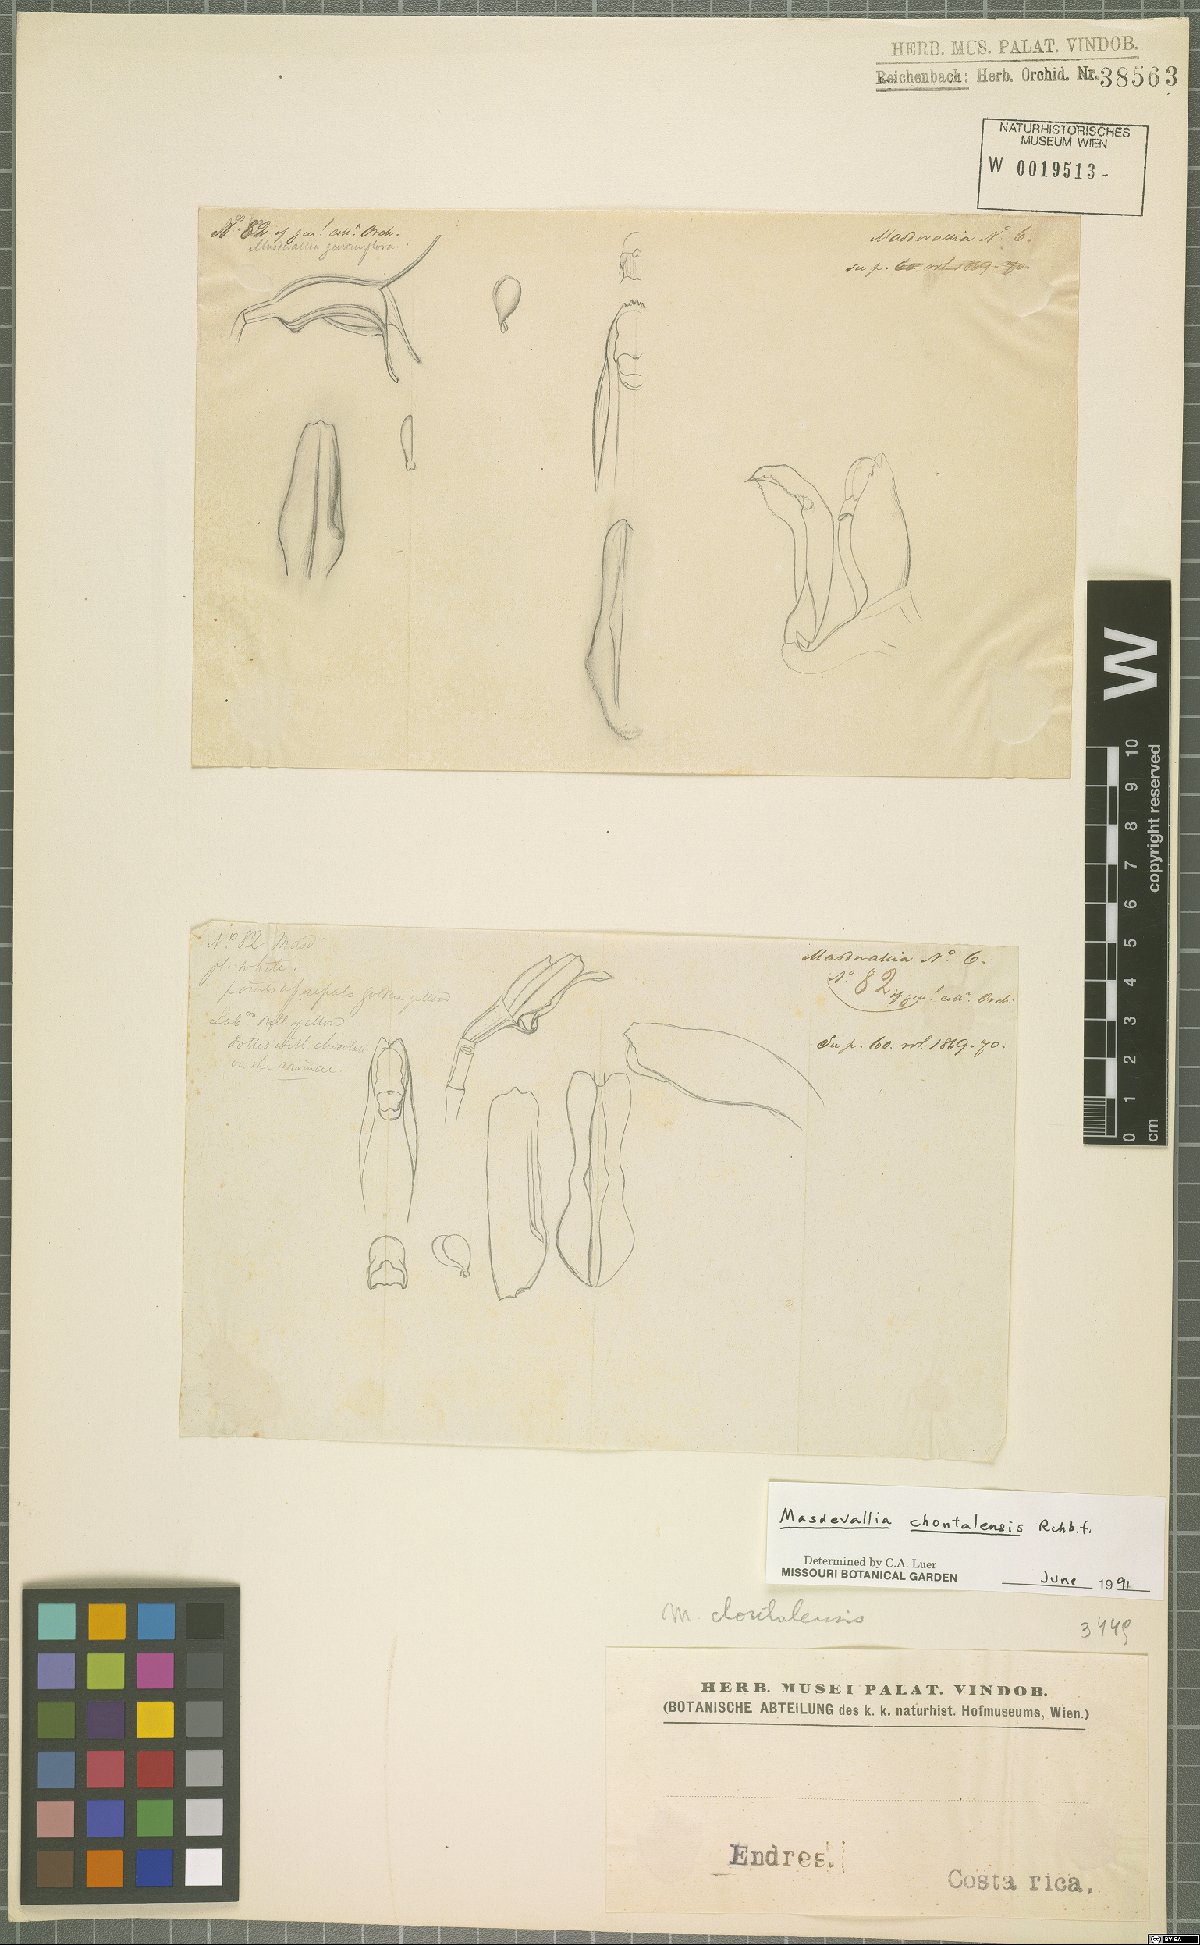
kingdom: Plantae
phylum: Tracheophyta
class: Liliopsida
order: Asparagales
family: Orchidaceae
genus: Masdevallia
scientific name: Masdevallia chontalensis
